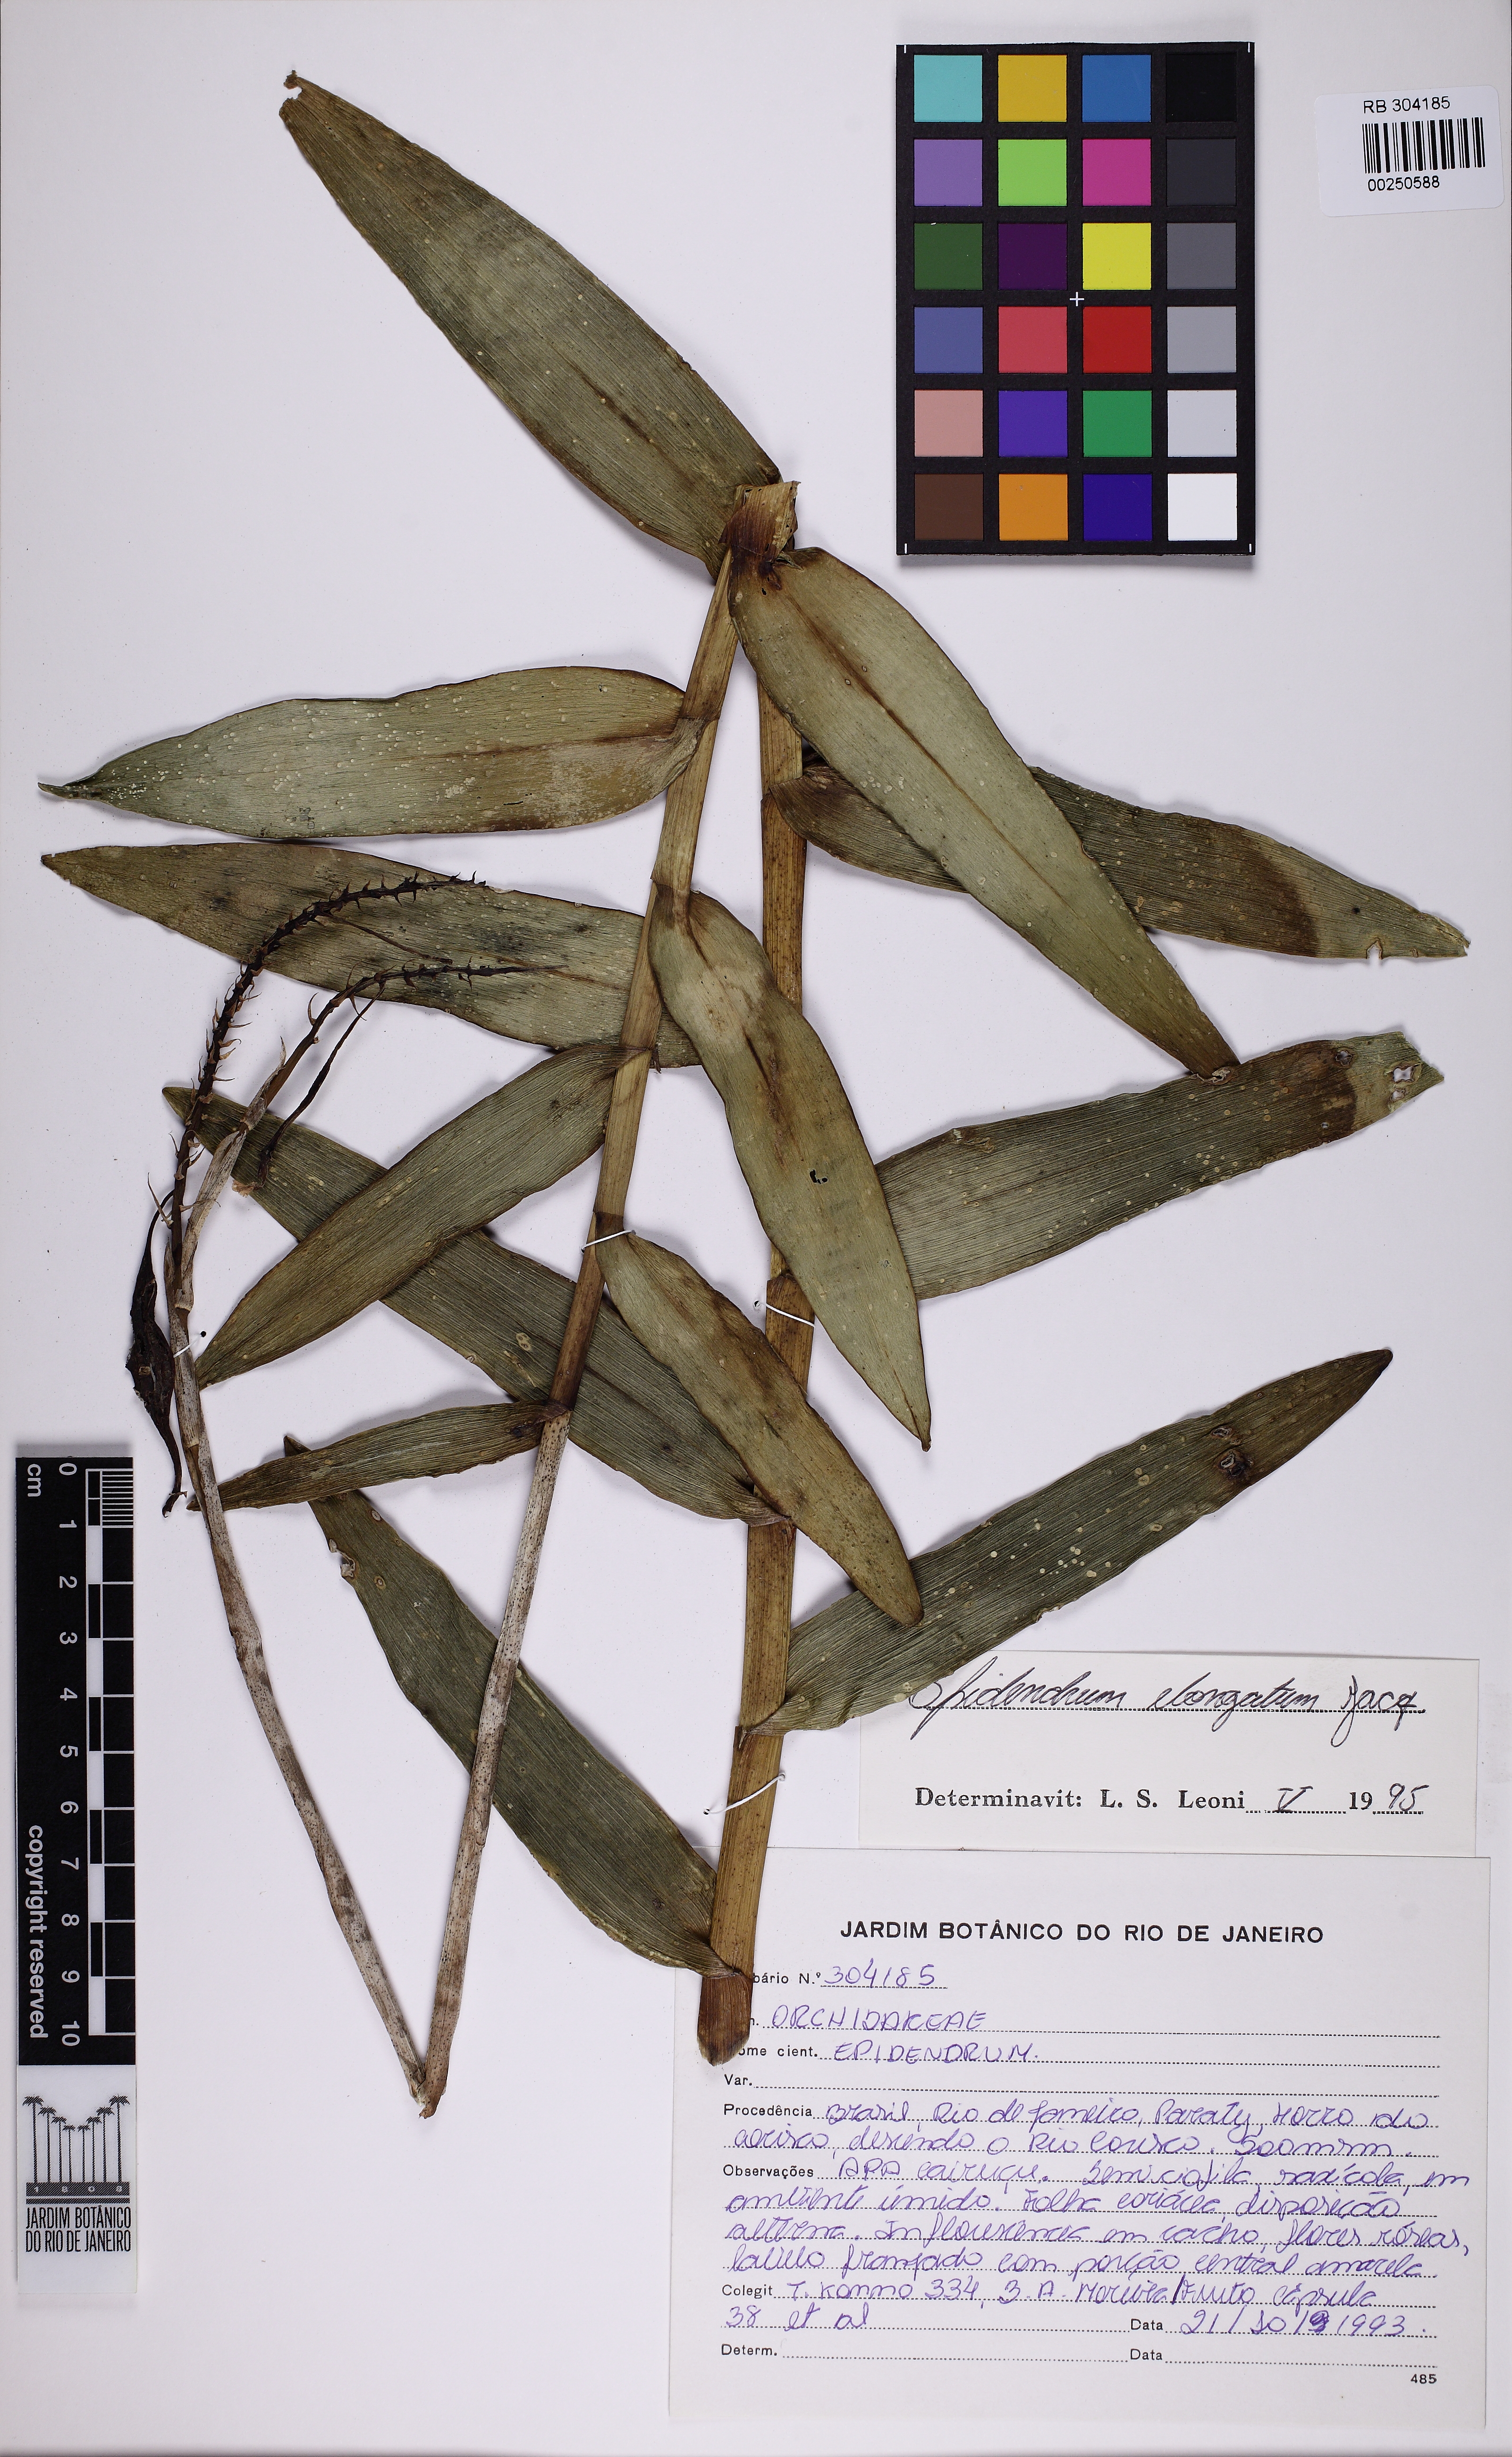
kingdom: Plantae
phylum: Tracheophyta
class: Liliopsida
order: Asparagales
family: Orchidaceae
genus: Epidendrum
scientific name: Epidendrum secundum
